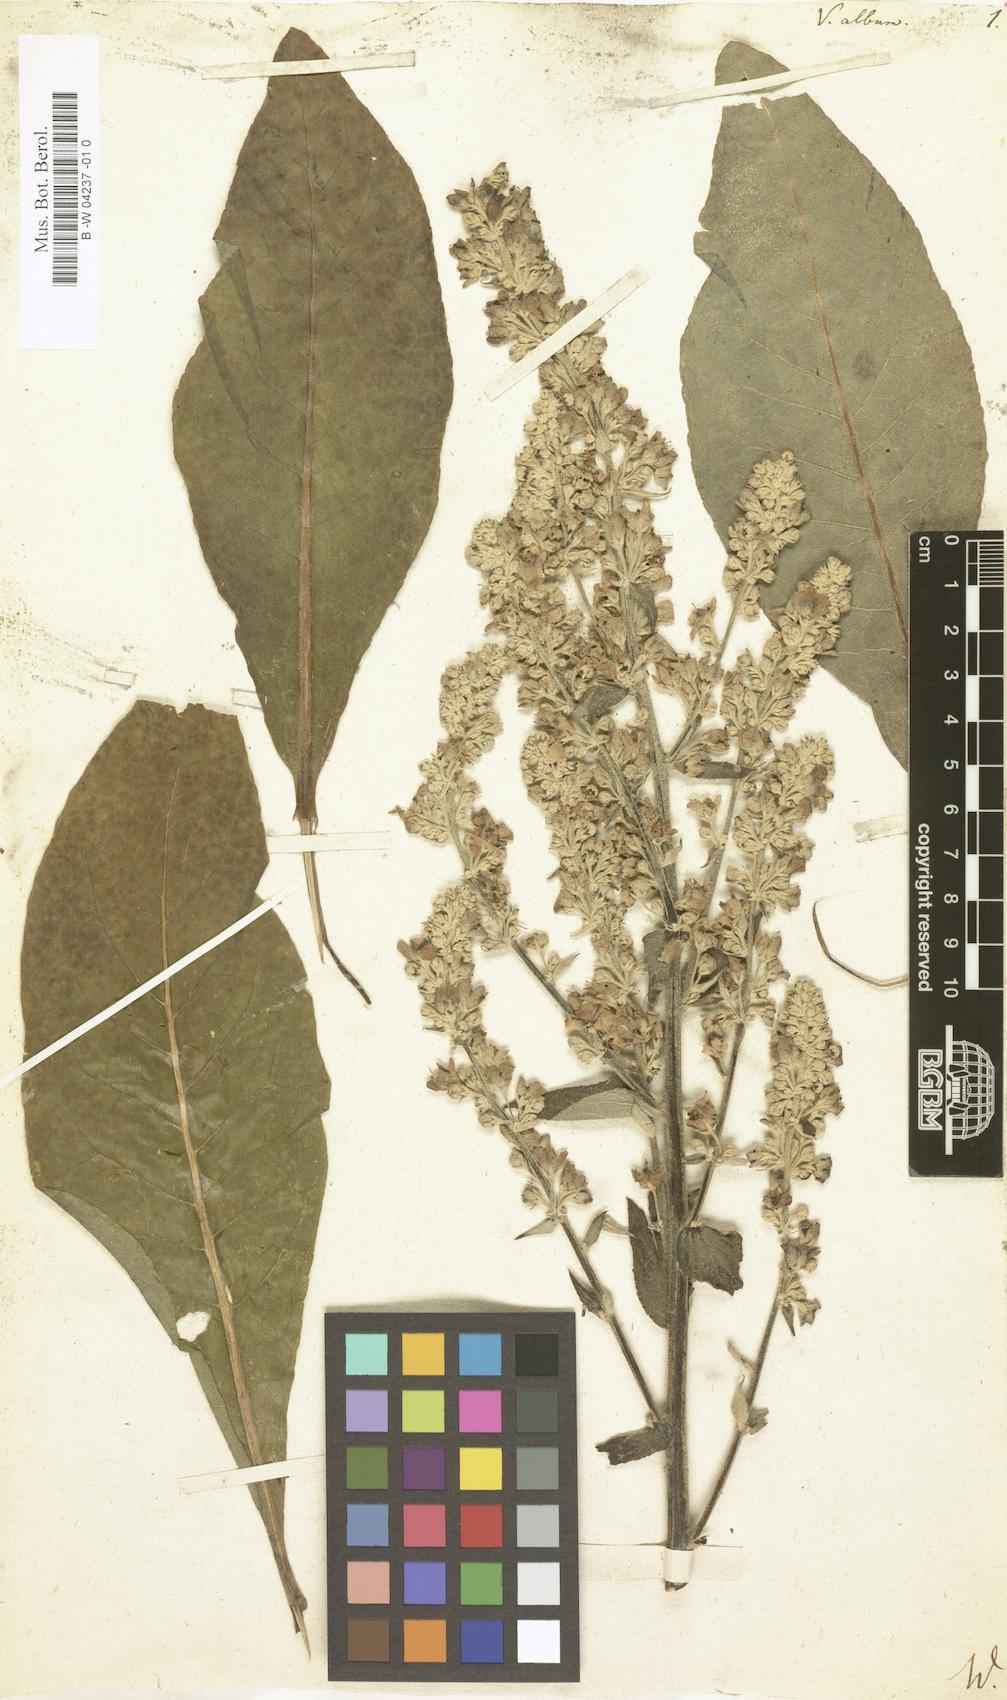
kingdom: Plantae
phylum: Tracheophyta
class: Magnoliopsida
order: Lamiales
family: Scrophulariaceae
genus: Verbascum
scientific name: Verbascum lychnitis
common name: White mullein
